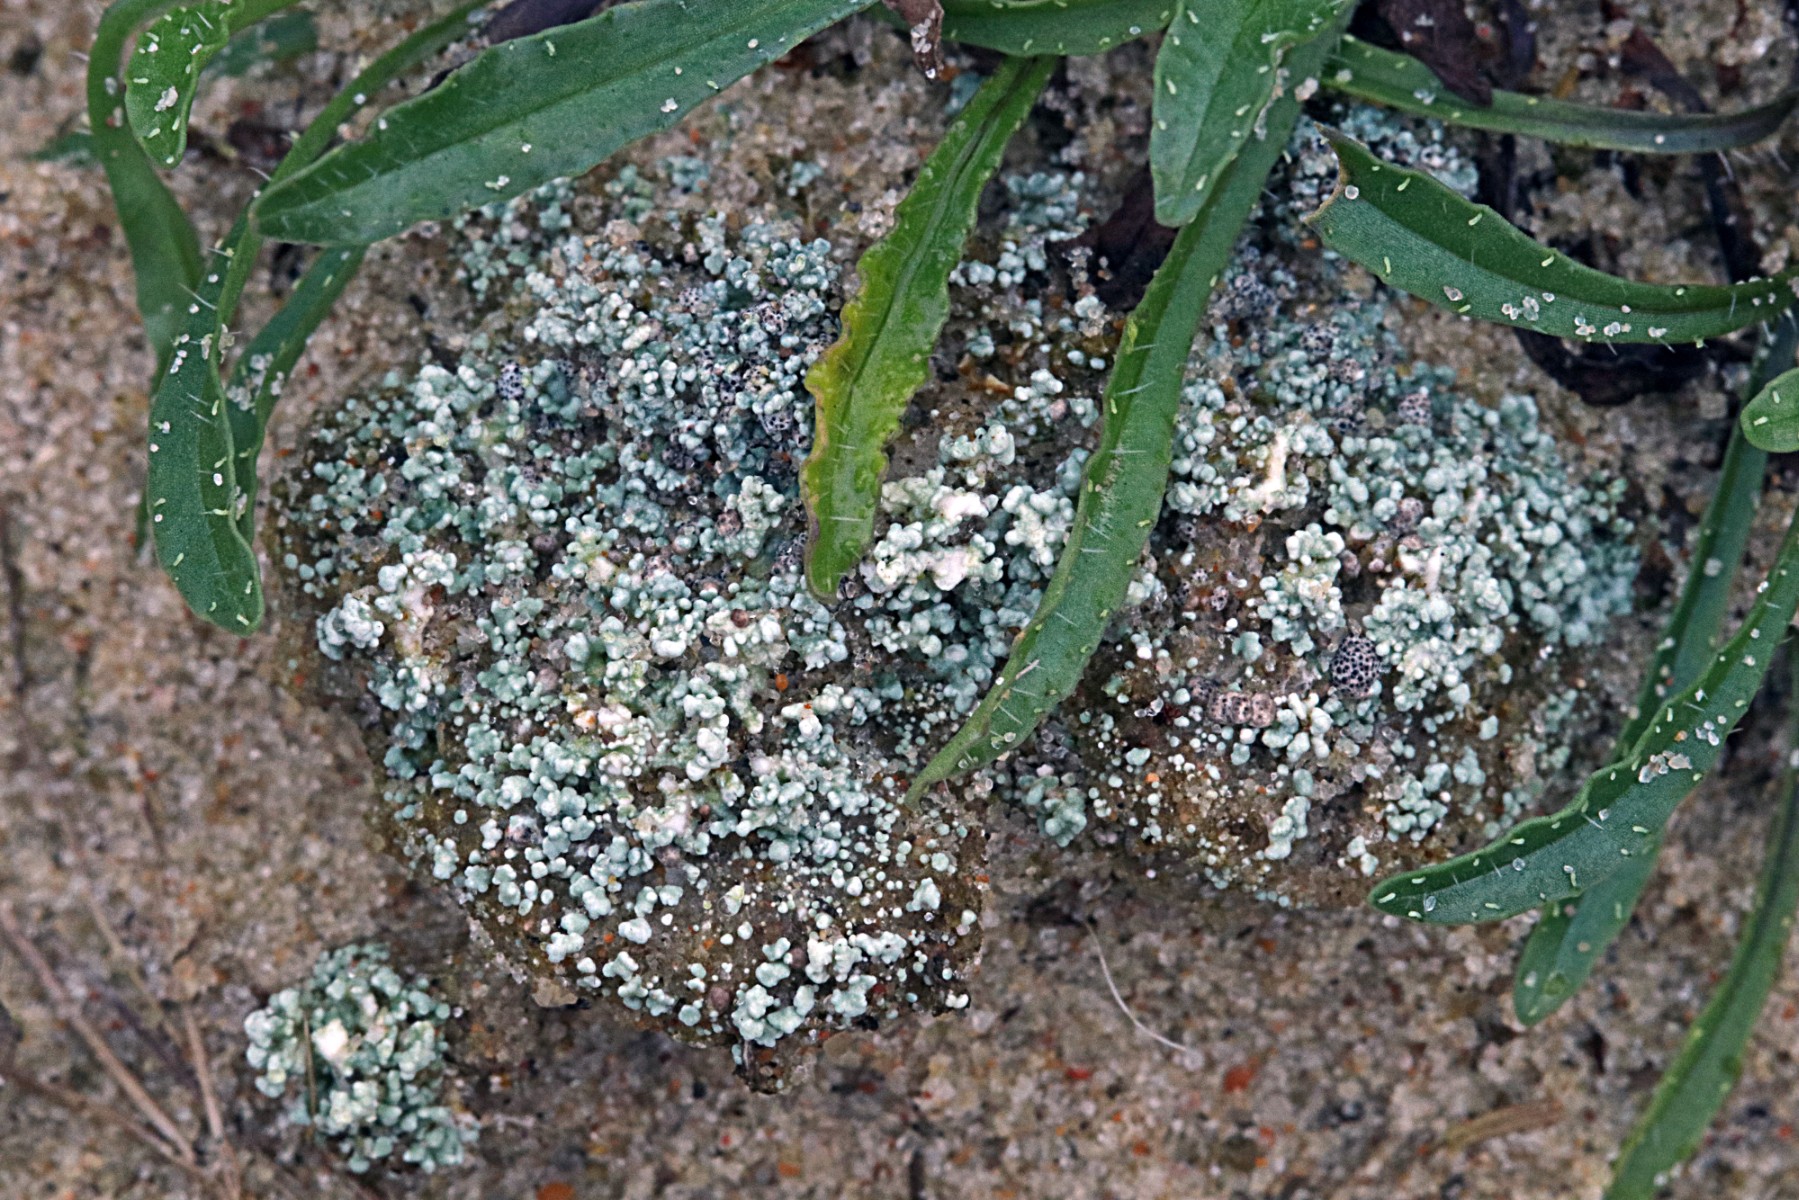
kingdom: Fungi
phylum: Ascomycota
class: Lecanoromycetes
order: Lecanorales
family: Stereocaulaceae
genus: Stereocaulon
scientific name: Stereocaulon condensatum
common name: lav korallav
